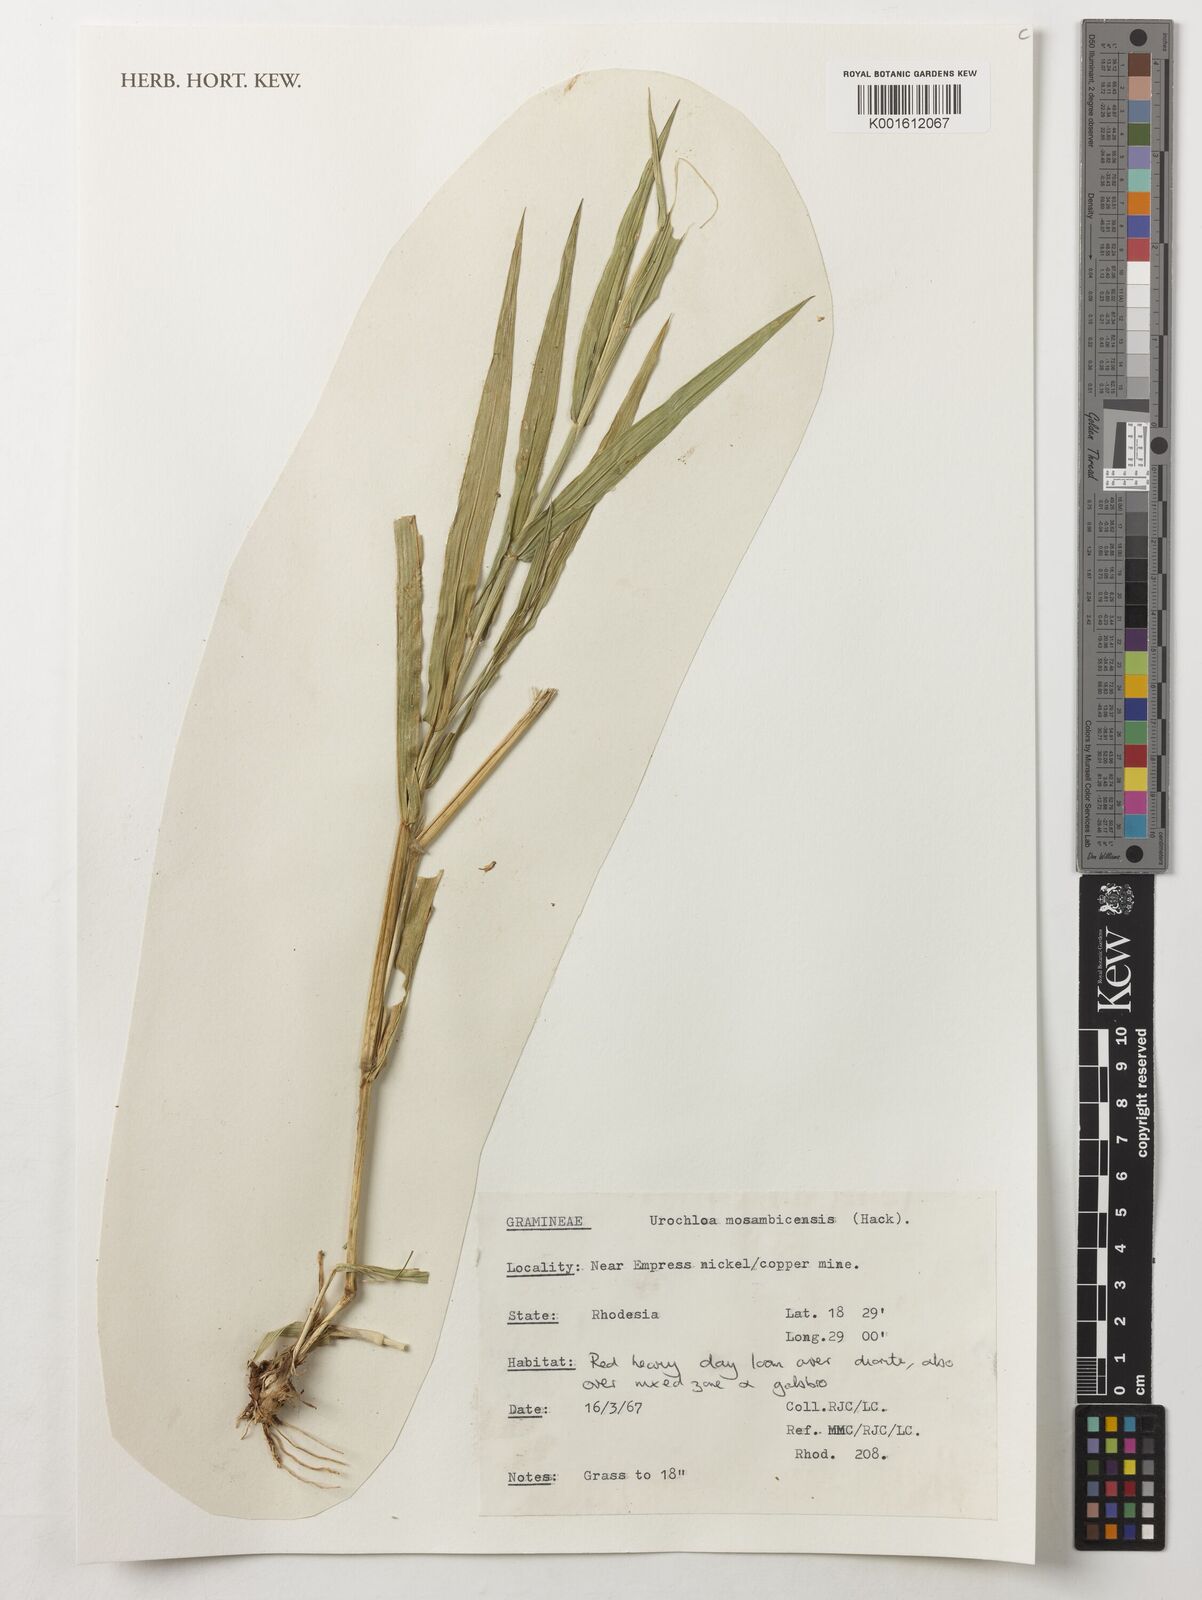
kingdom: Plantae
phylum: Tracheophyta
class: Liliopsida
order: Poales
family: Poaceae
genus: Urochloa
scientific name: Urochloa trichopus
